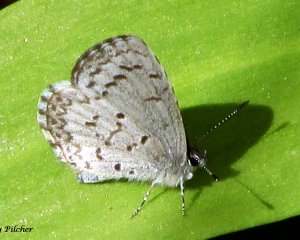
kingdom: Animalia
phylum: Arthropoda
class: Insecta
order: Lepidoptera
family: Lycaenidae
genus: Celastrina
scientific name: Celastrina lucia
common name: Northern Spring Azure
